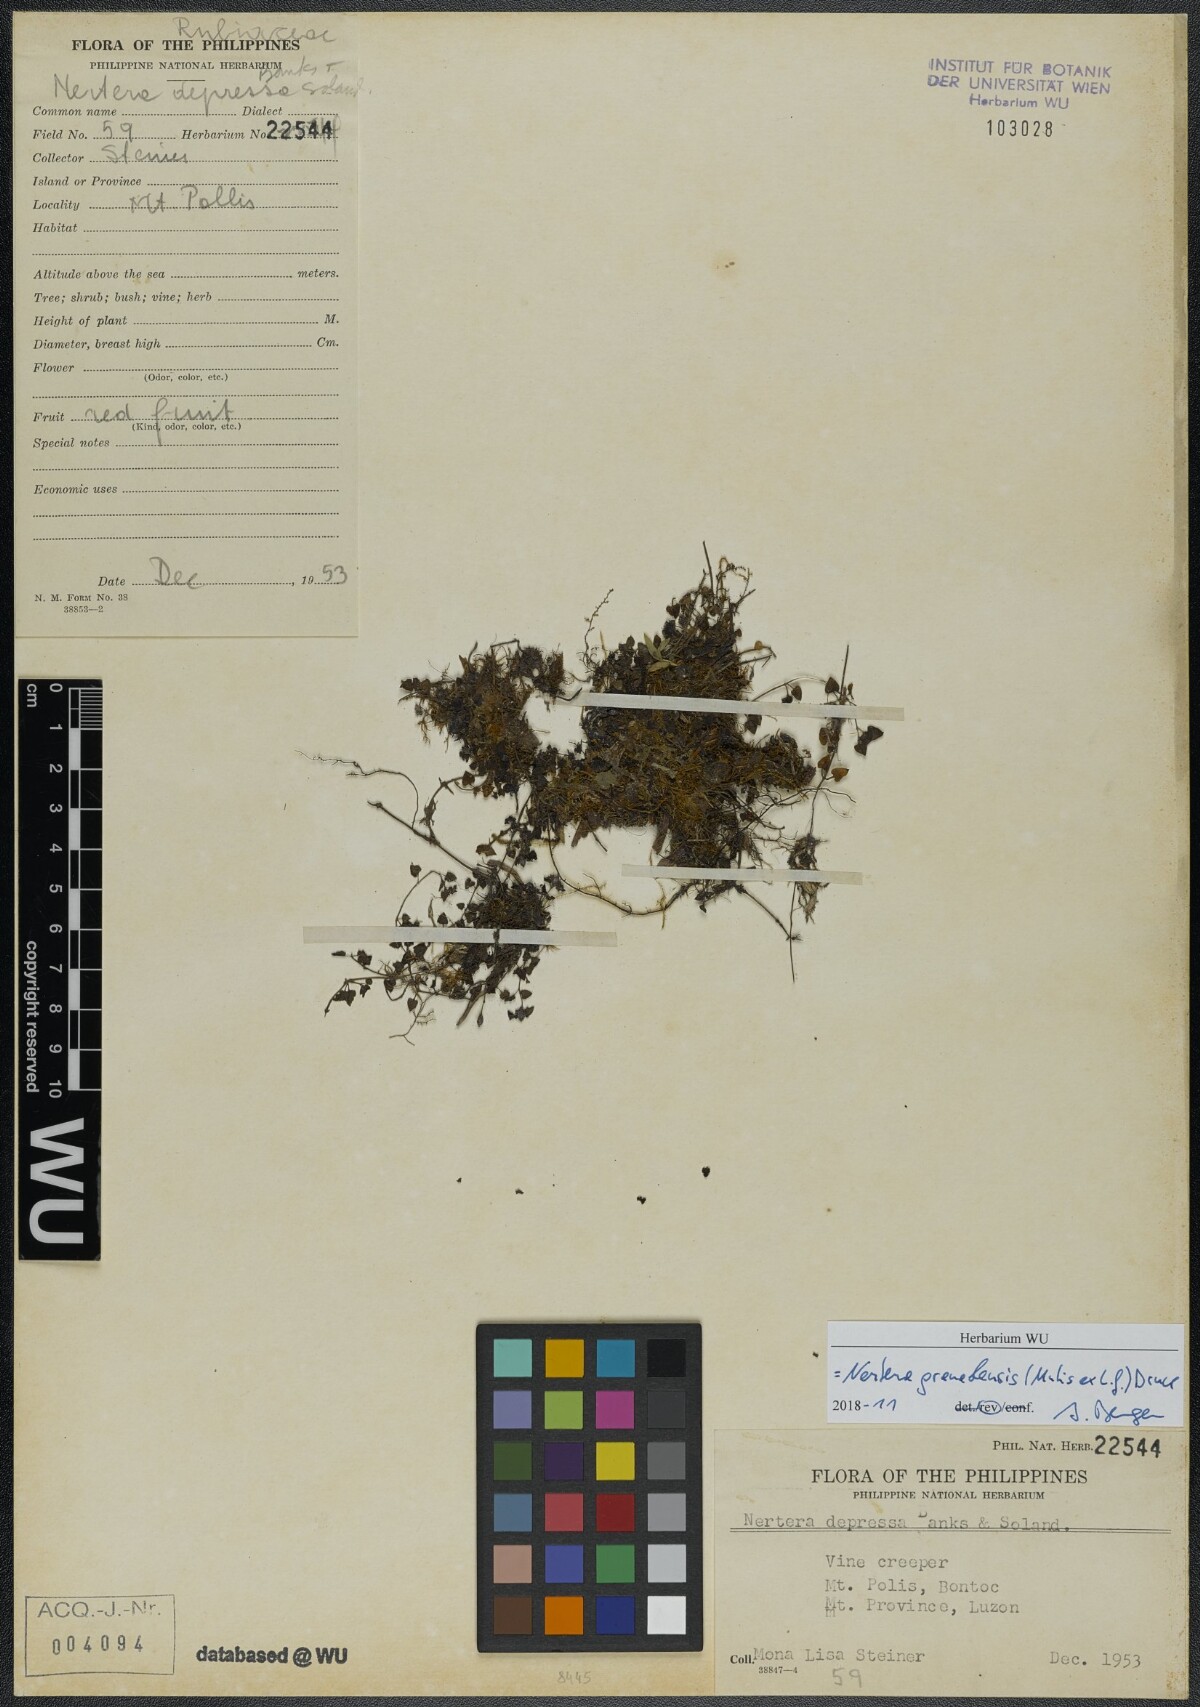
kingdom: Plantae
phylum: Tracheophyta
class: Magnoliopsida
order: Gentianales
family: Rubiaceae
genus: Nertera
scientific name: Nertera granadensis
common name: Beadplant
